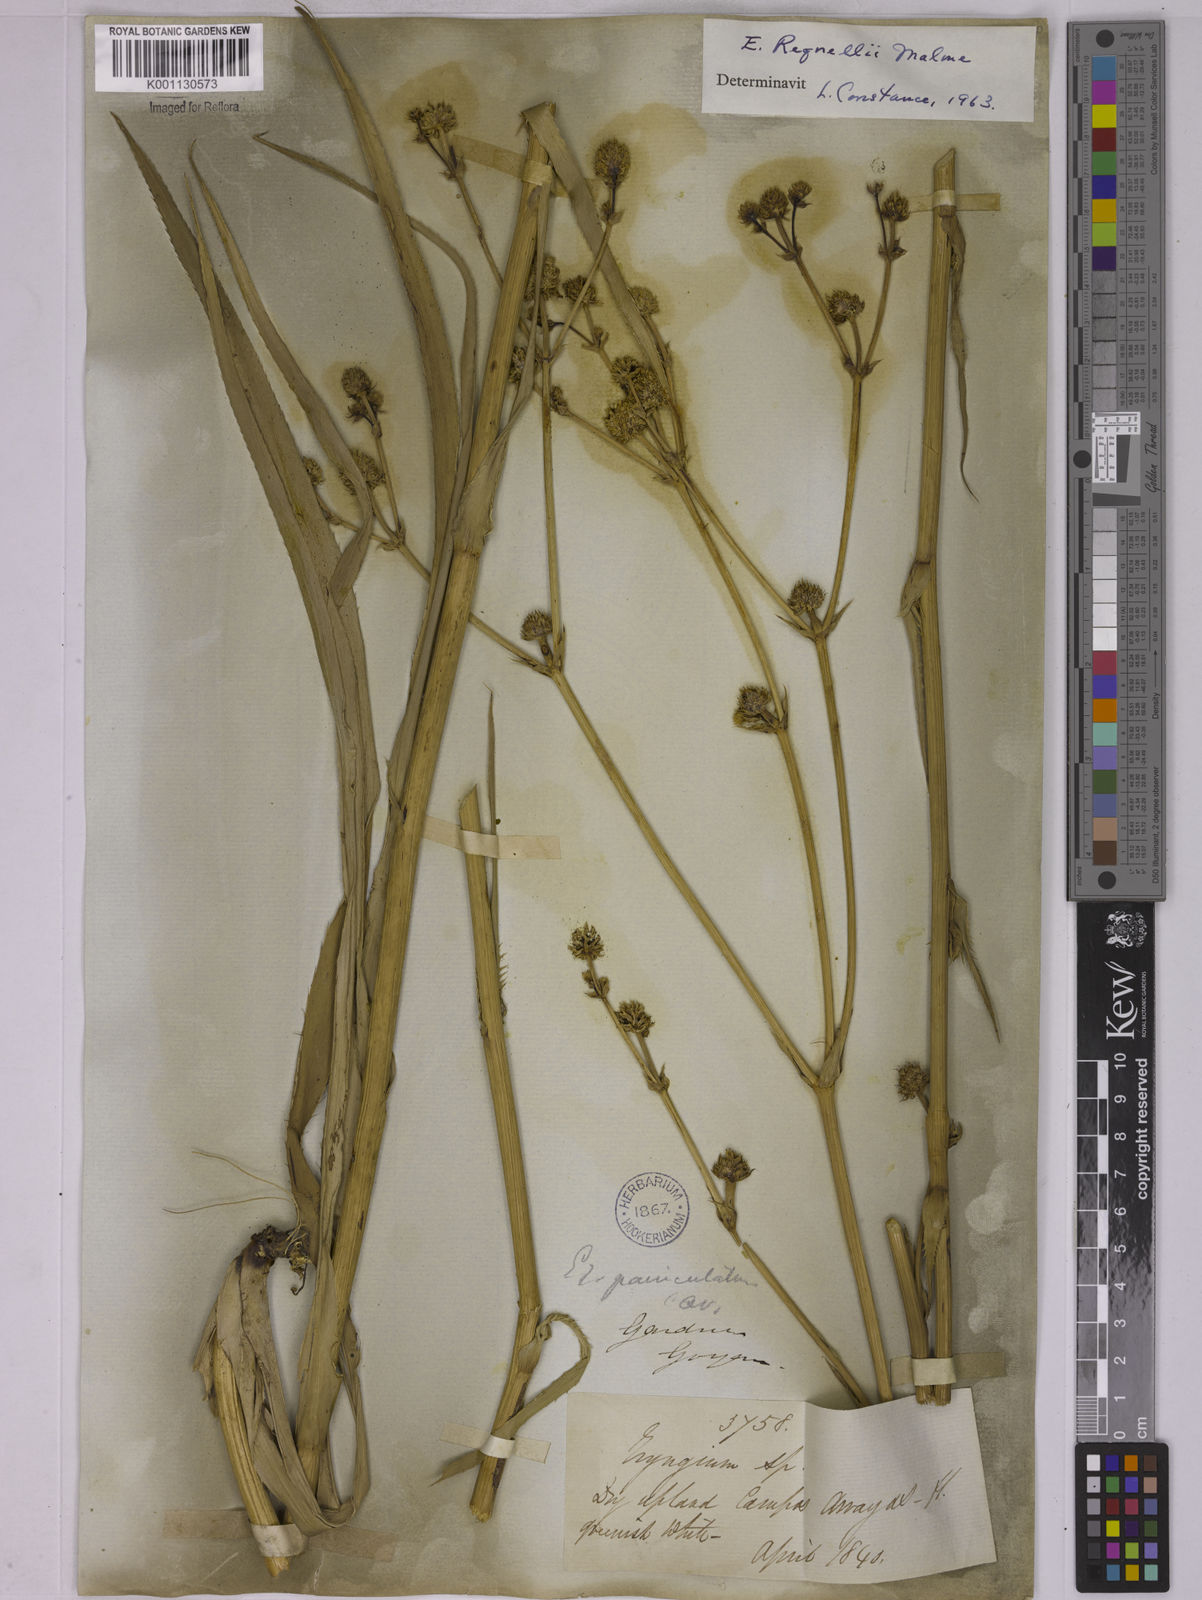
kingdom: Plantae
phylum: Tracheophyta
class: Magnoliopsida
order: Apiales
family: Apiaceae
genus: Eryngium
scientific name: Eryngium regnellii
